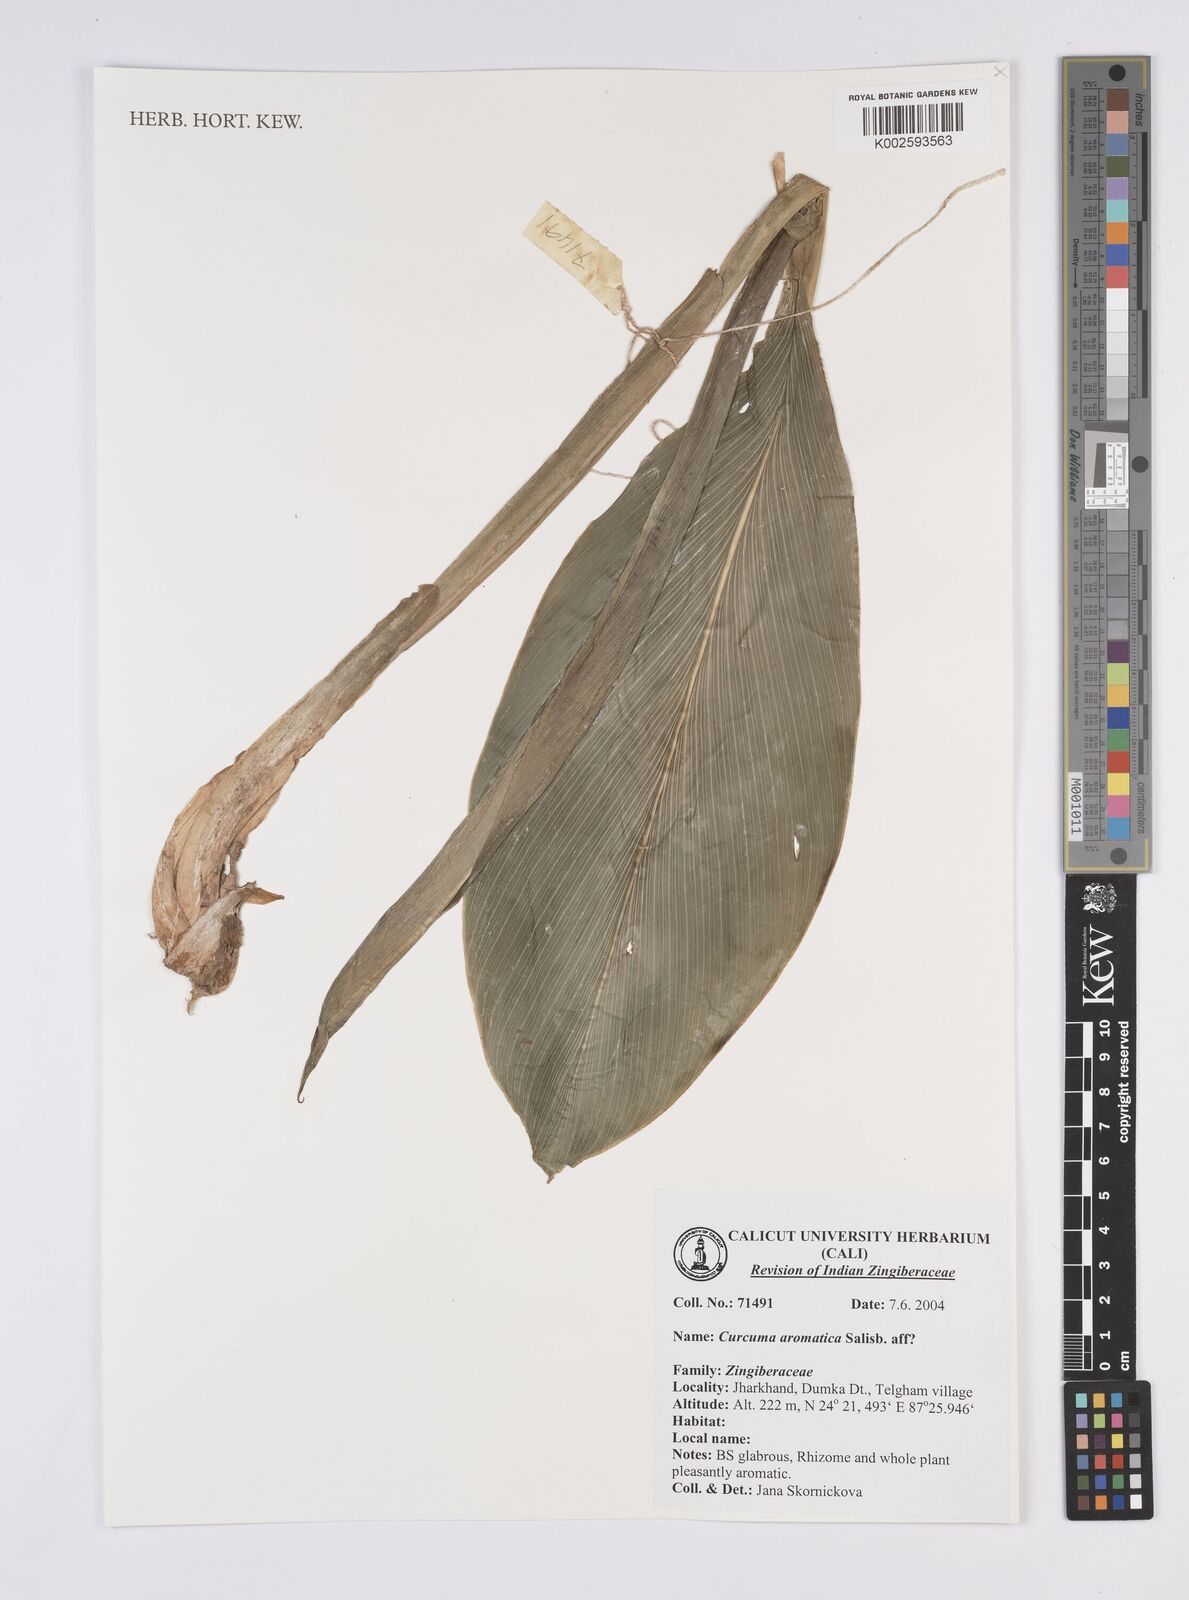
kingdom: Plantae
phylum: Tracheophyta
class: Liliopsida
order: Zingiberales
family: Zingiberaceae
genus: Curcuma
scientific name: Curcuma aromatica
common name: Wild turmeric
